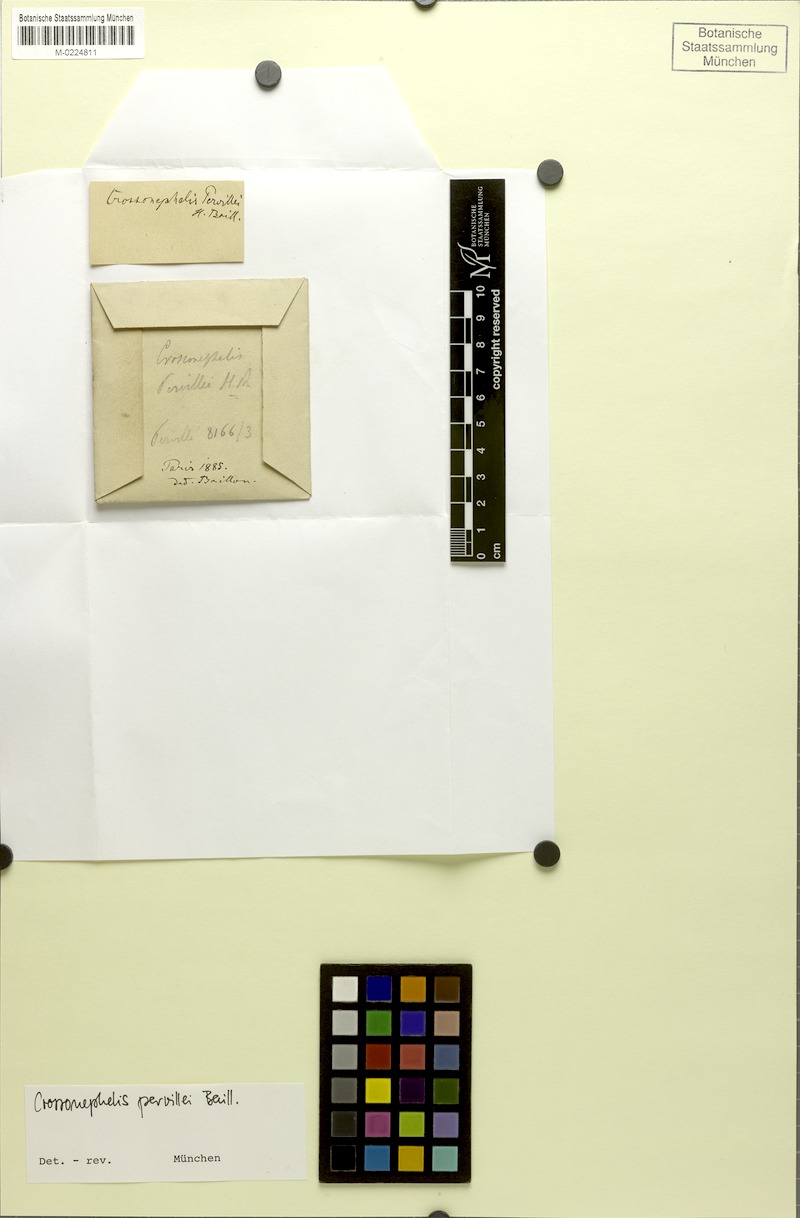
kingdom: Plantae
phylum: Tracheophyta
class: Magnoliopsida
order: Sapindales
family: Sapindaceae
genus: Glenniea
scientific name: Glenniea pervillei
